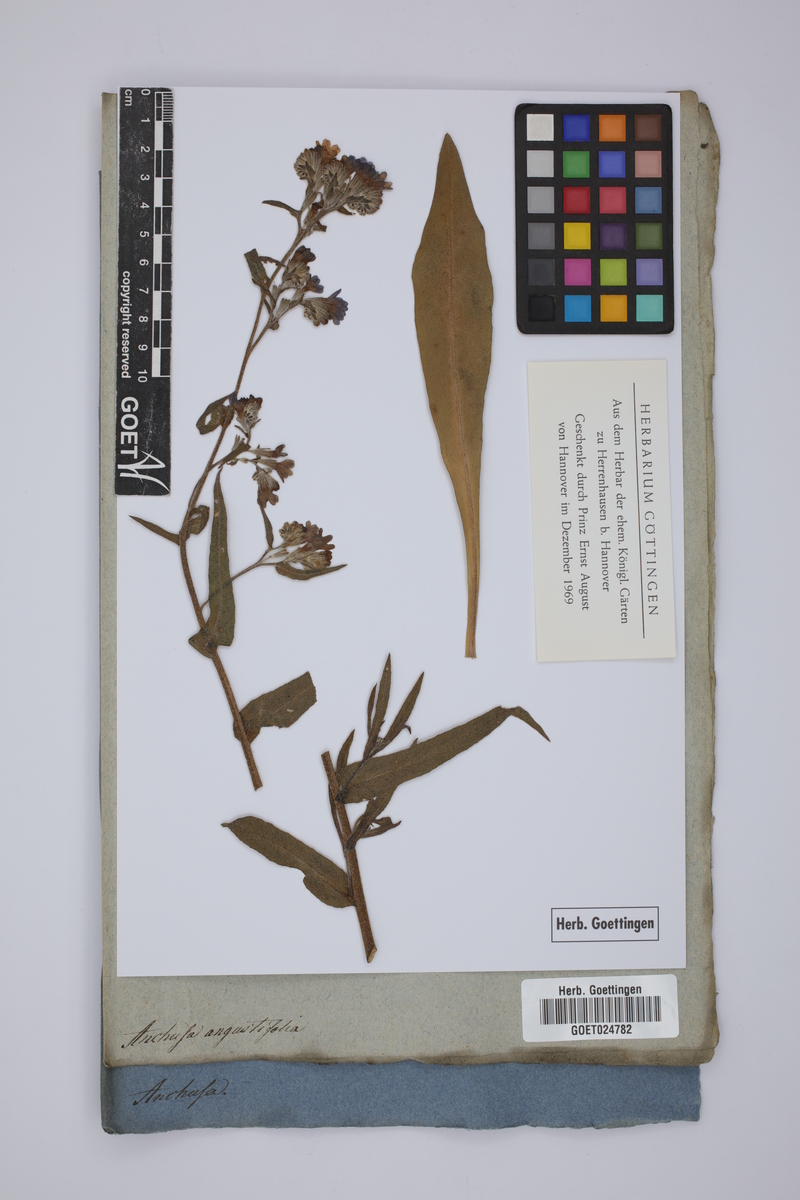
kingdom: Plantae
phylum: Tracheophyta
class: Magnoliopsida
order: Boraginales
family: Boraginaceae
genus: Anchusa
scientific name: Anchusa officinalis
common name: Alkanet
